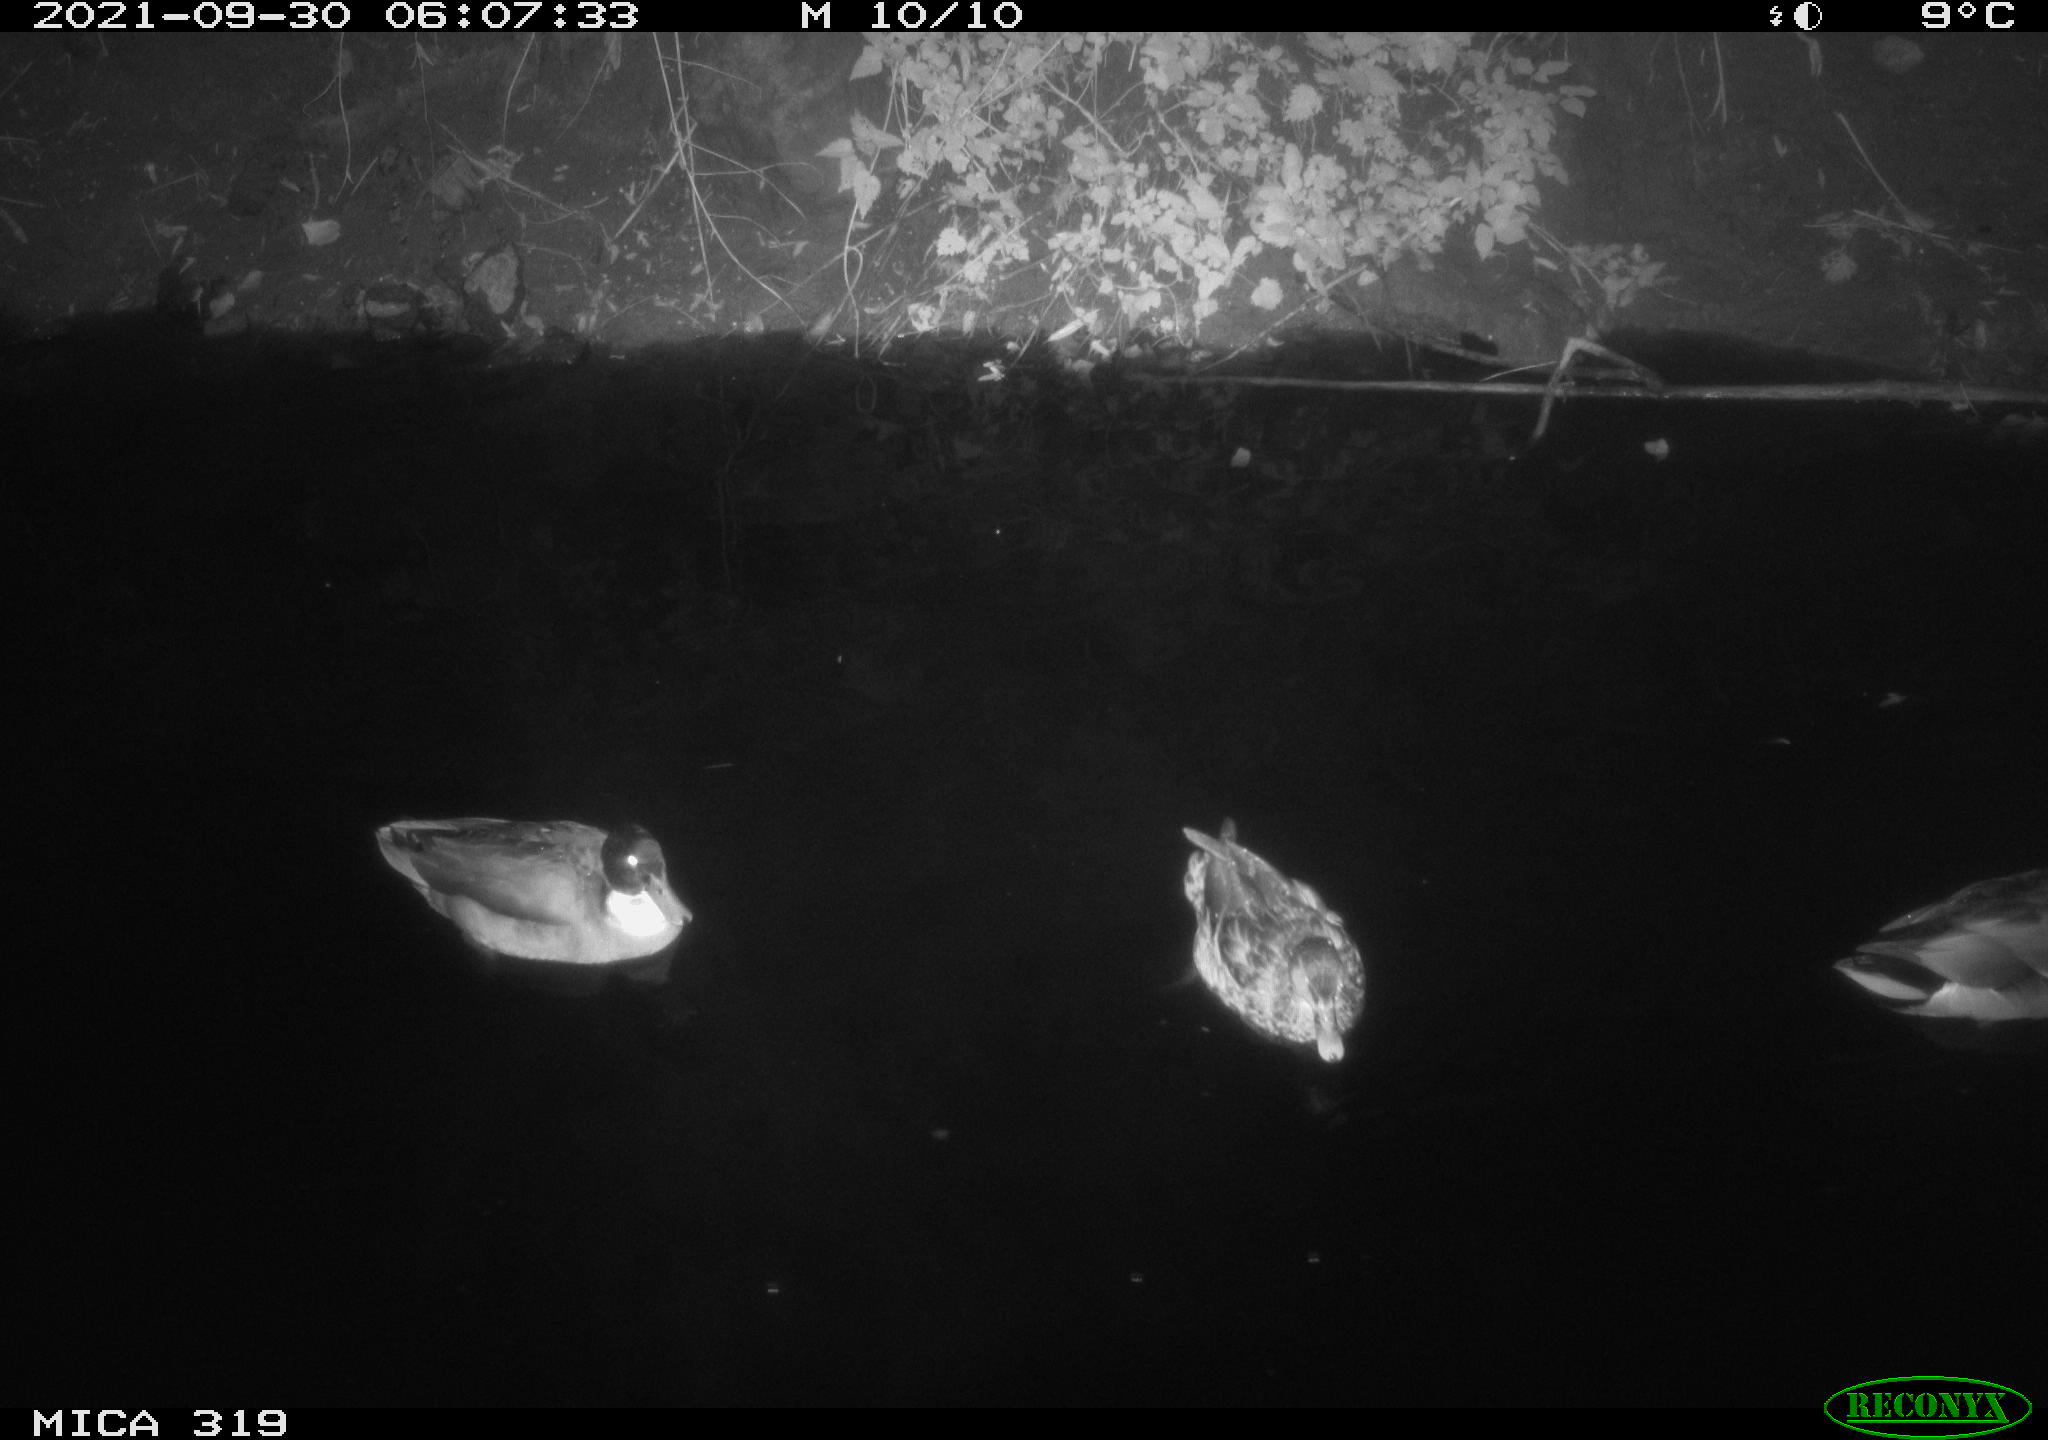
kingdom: Animalia
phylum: Chordata
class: Aves
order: Anseriformes
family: Anatidae
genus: Anas
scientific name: Anas platyrhynchos
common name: Mallard
